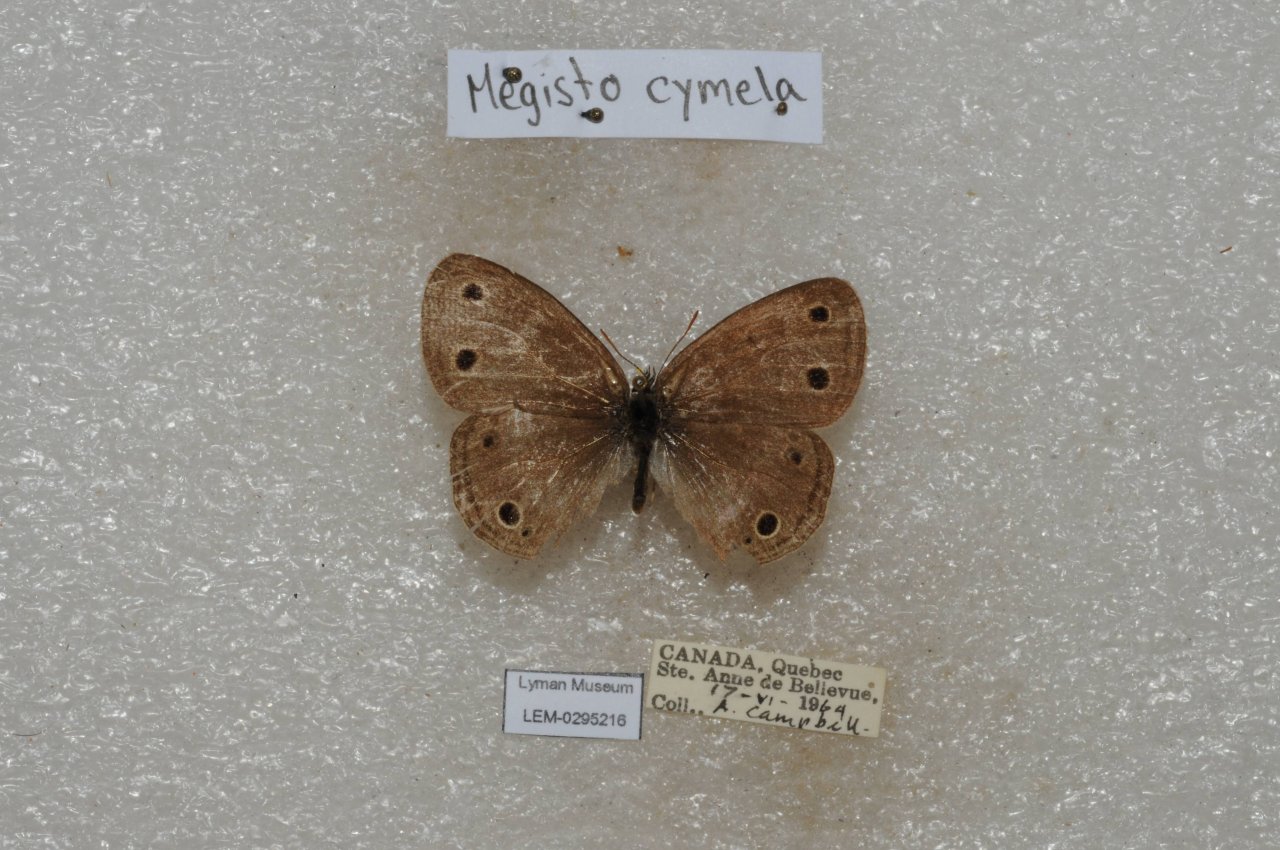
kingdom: Animalia
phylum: Arthropoda
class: Insecta
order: Lepidoptera
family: Nymphalidae
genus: Euptychia
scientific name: Euptychia cymela
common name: Little Wood Satyr
